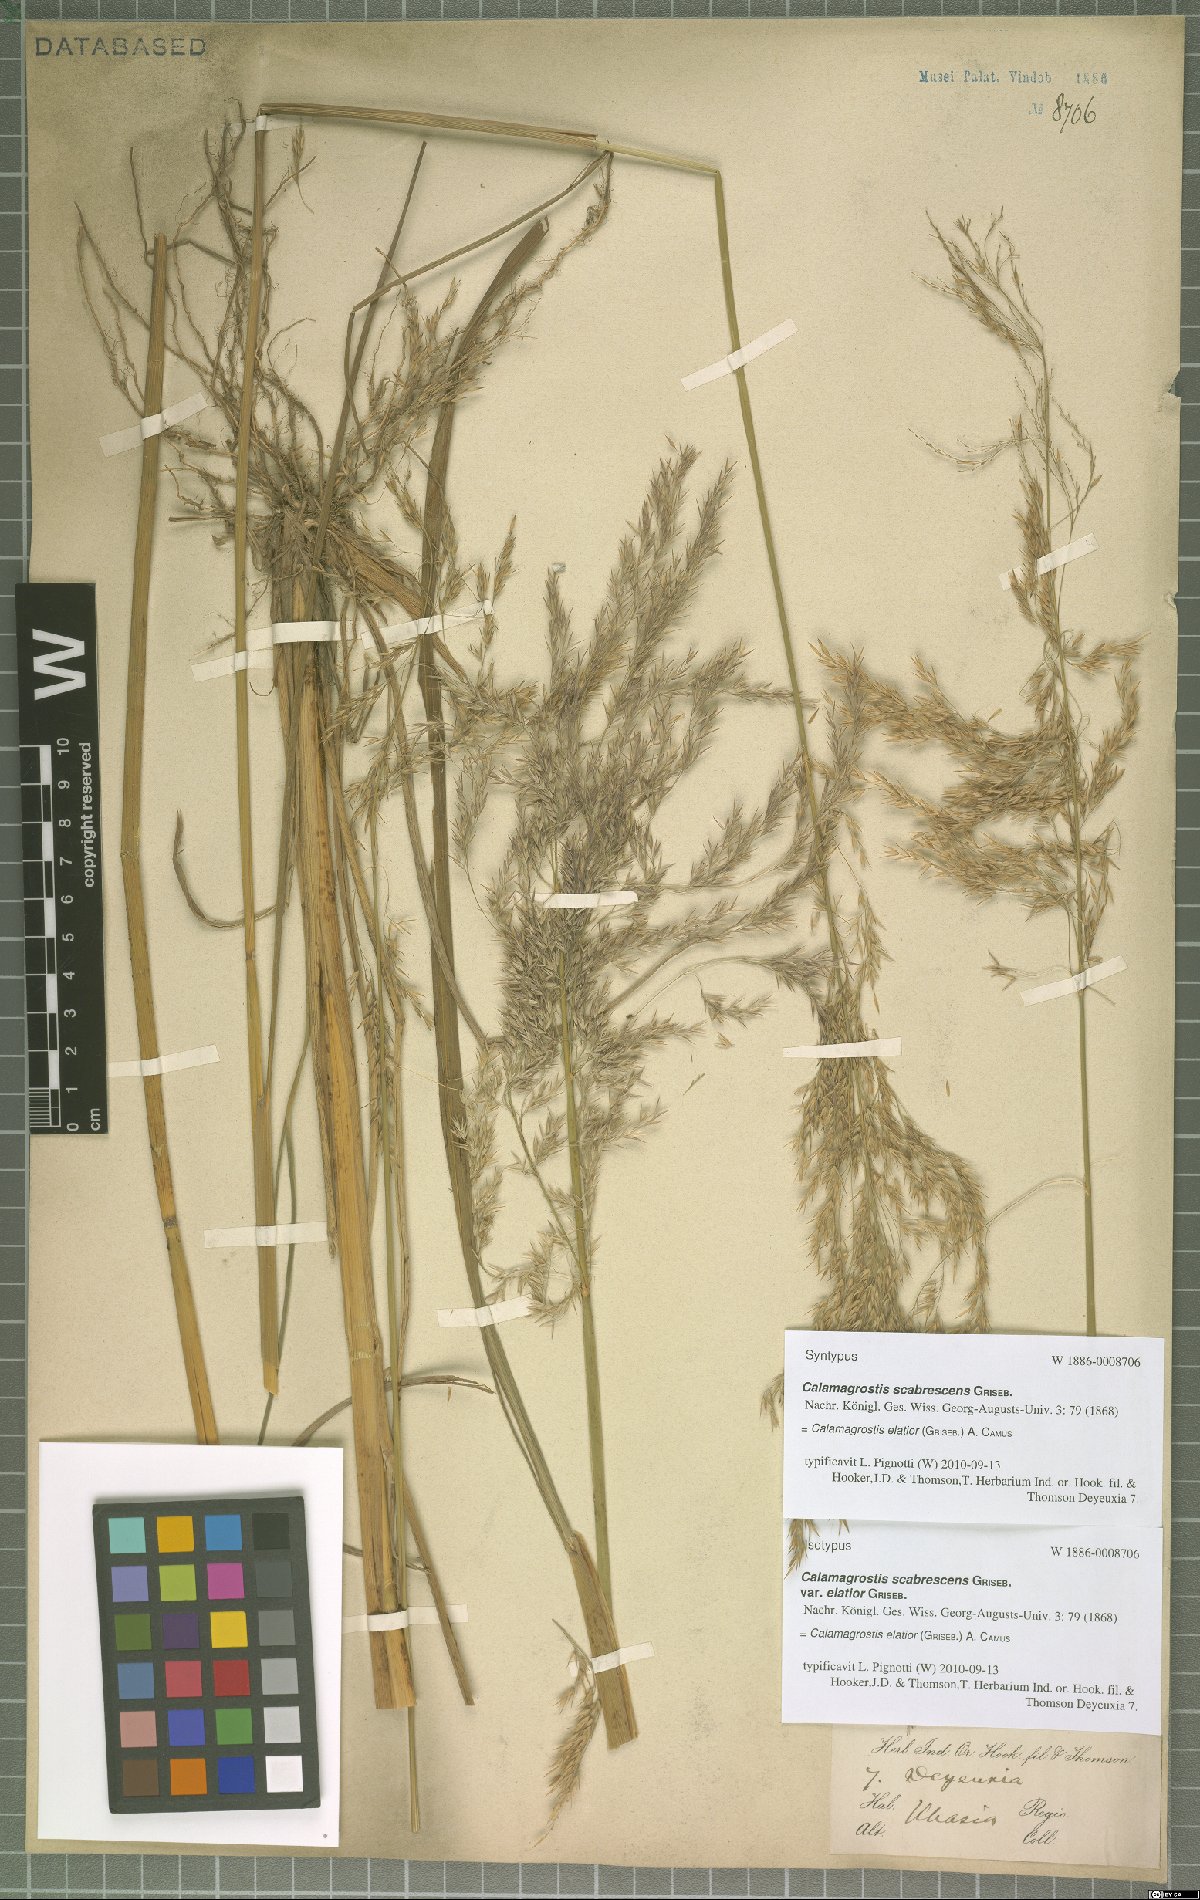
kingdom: Plantae
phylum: Tracheophyta
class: Liliopsida
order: Poales
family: Poaceae
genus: Calamagrostis
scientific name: Calamagrostis elatior
